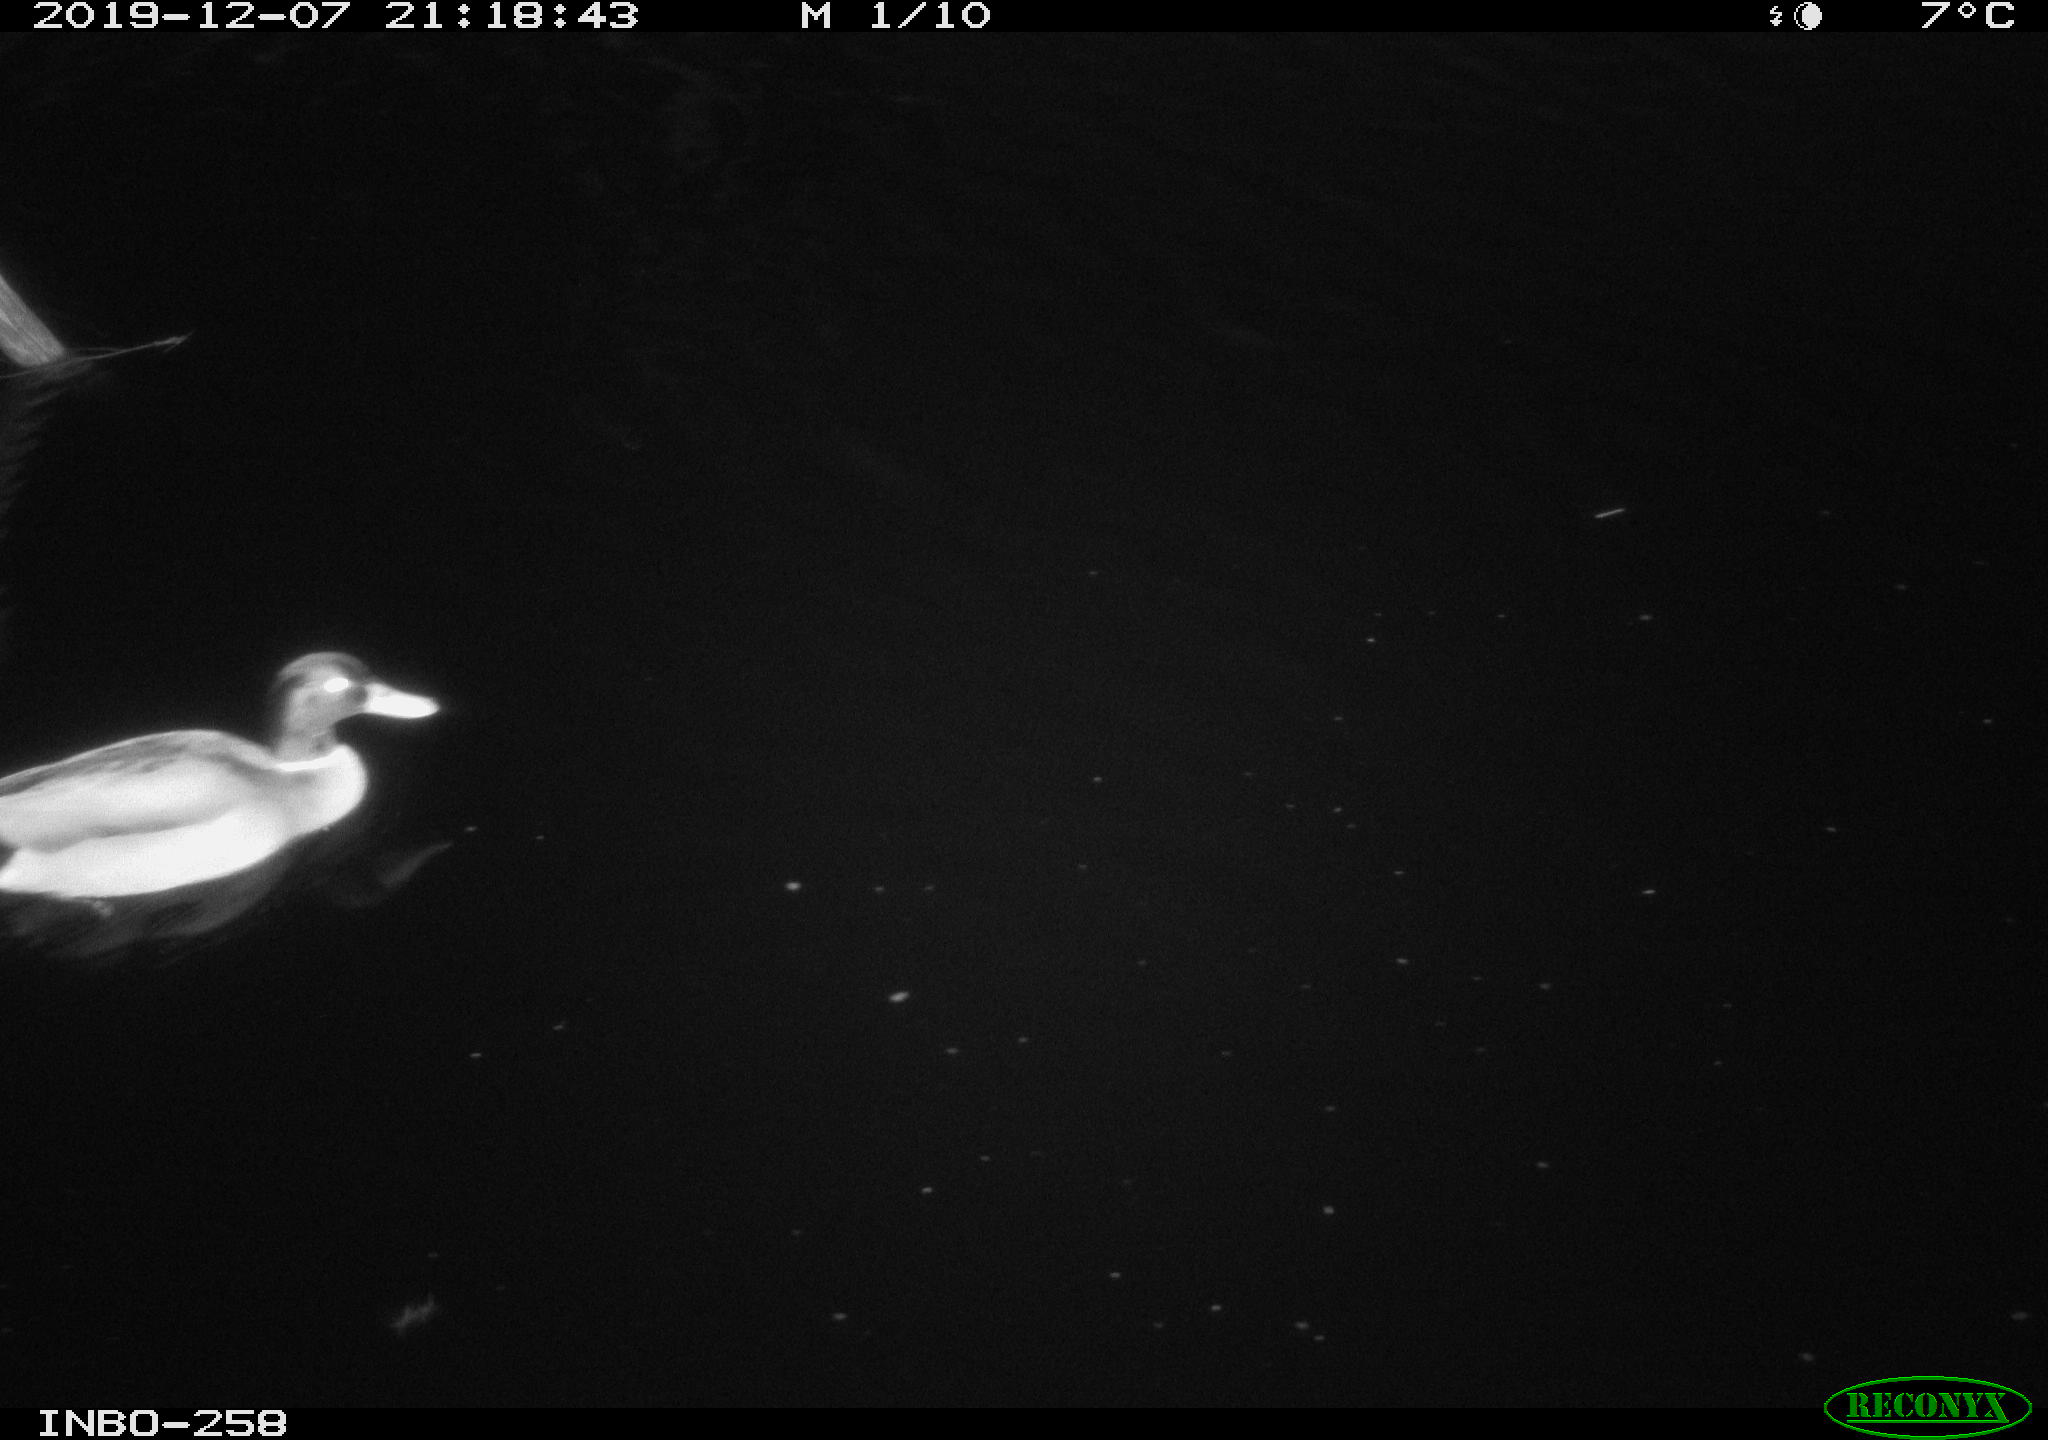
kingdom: Animalia
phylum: Chordata
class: Aves
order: Anseriformes
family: Anatidae
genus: Anas
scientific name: Anas platyrhynchos
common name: Mallard
